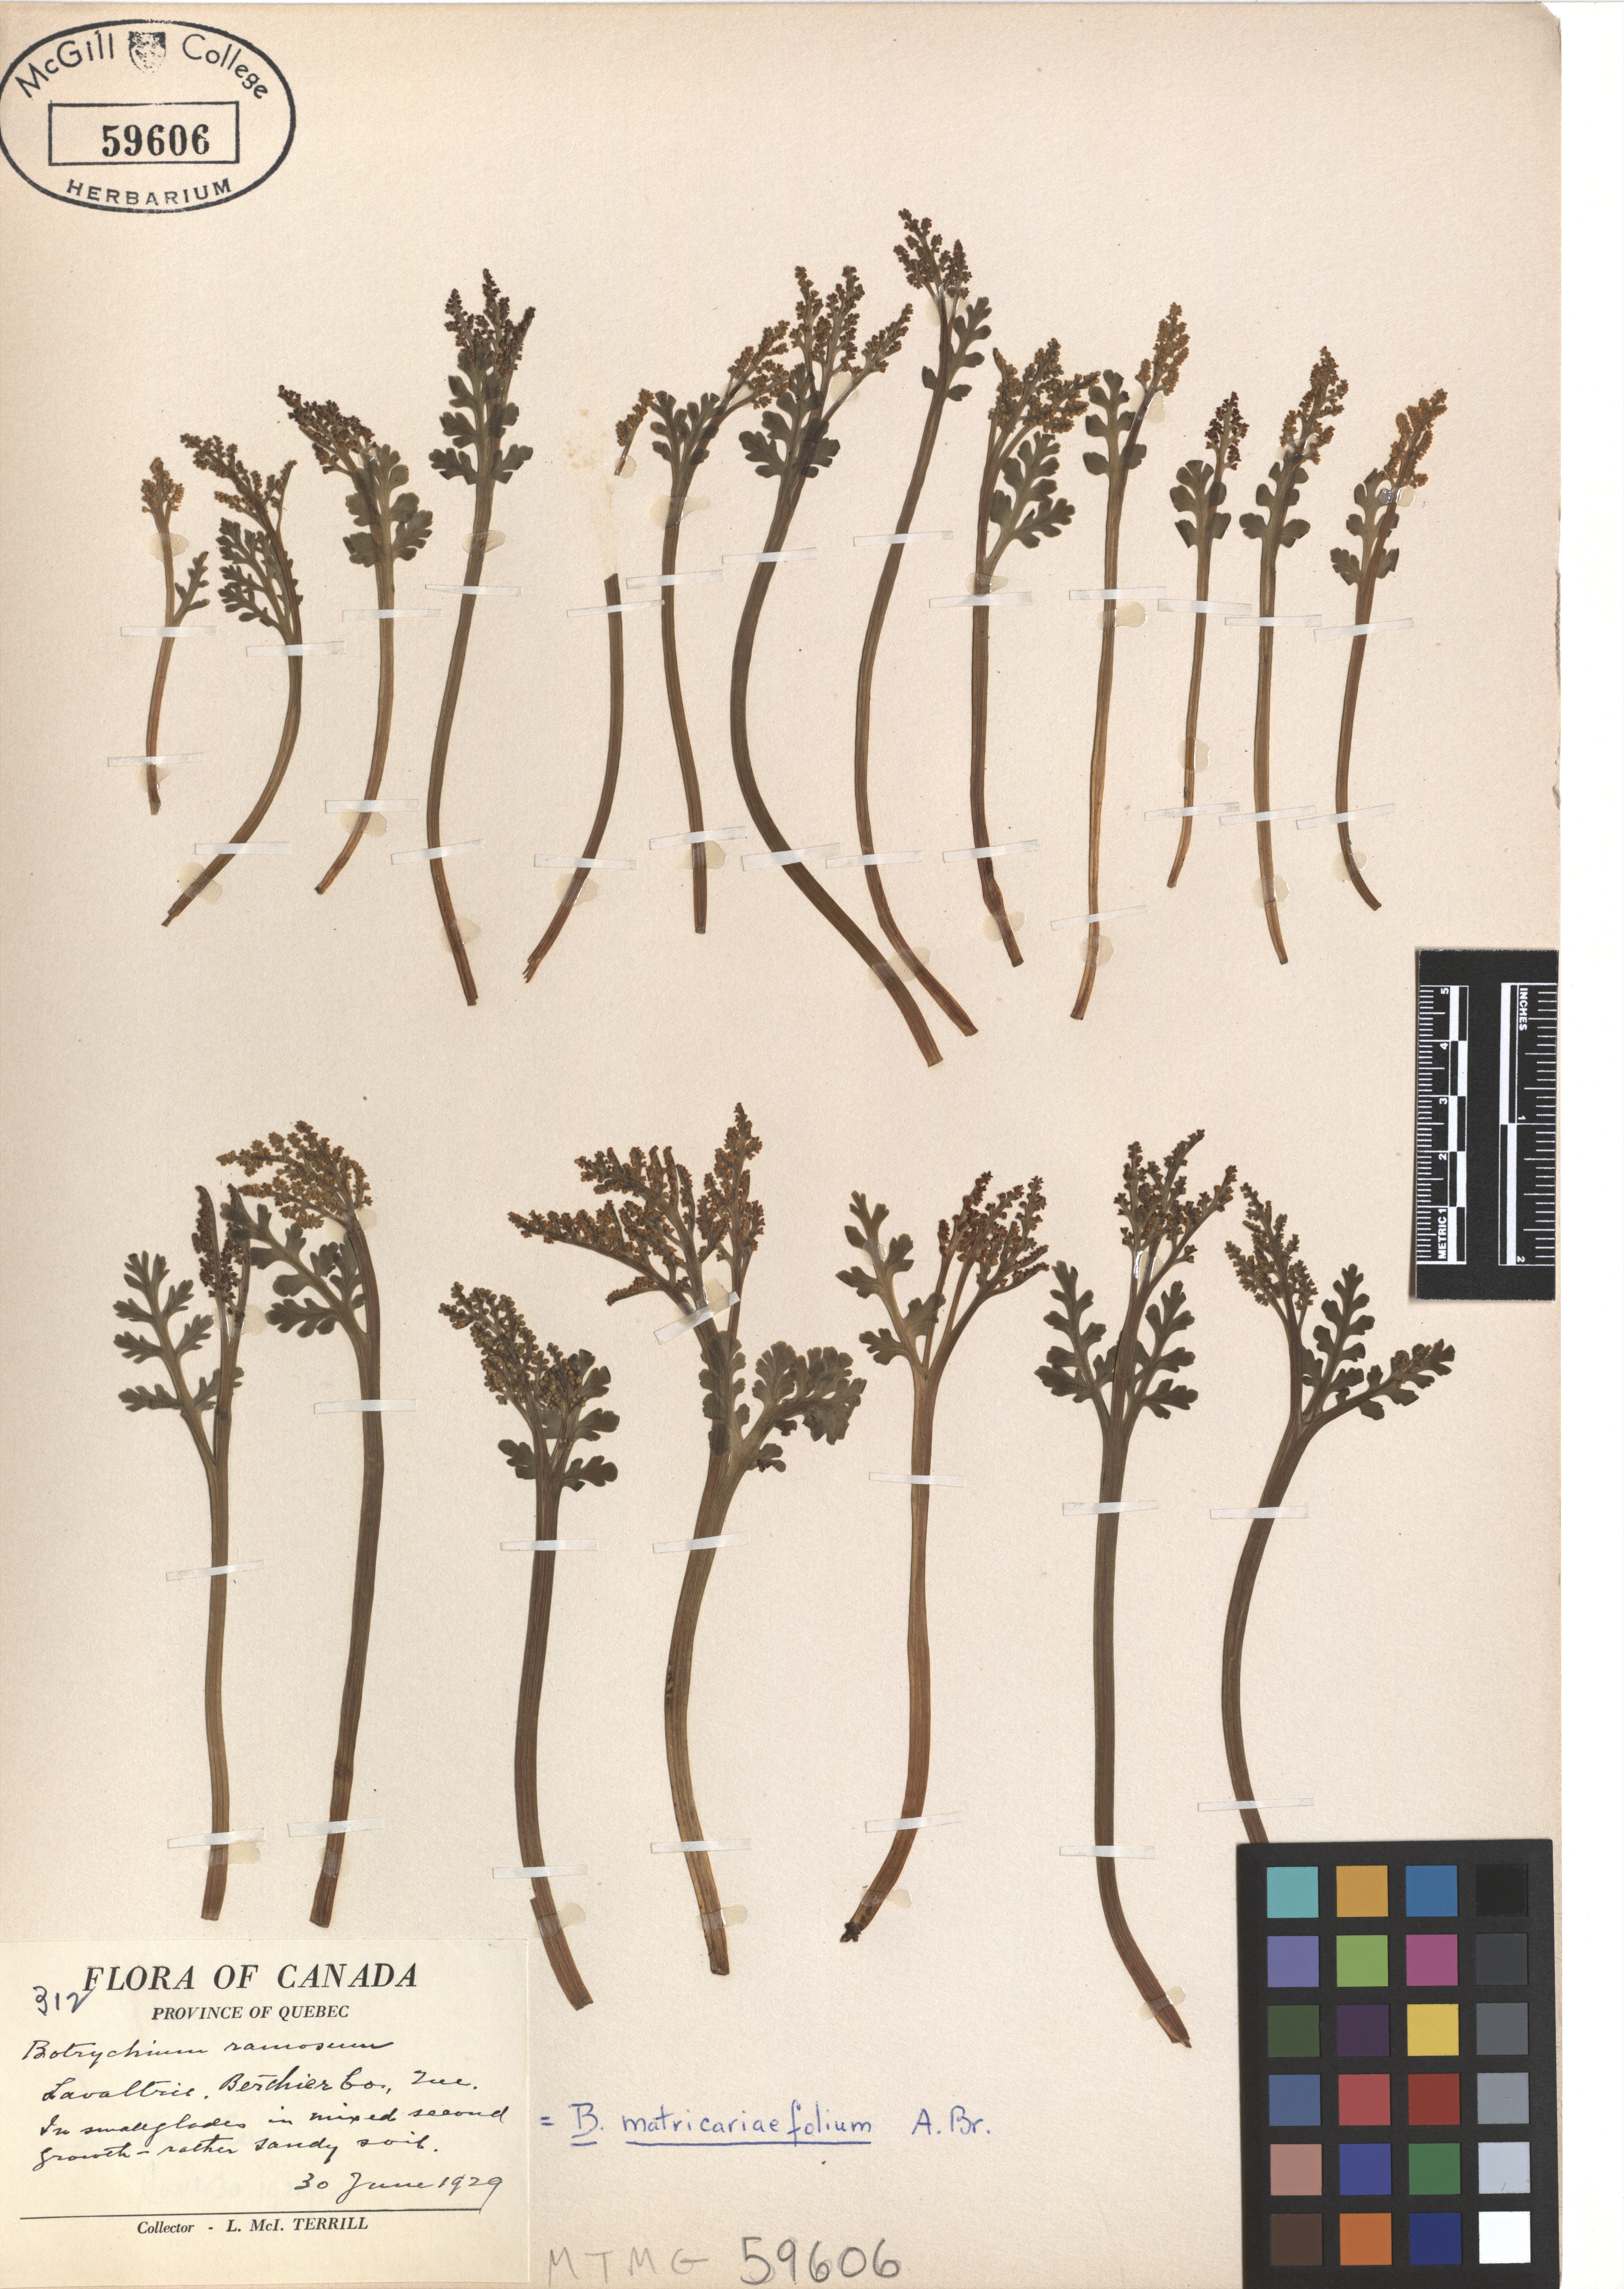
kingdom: Plantae
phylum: Tracheophyta
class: Polypodiopsida
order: Ophioglossales
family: Ophioglossaceae
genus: Botrychium
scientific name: Botrychium matricariifolium
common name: Branched moonwort
